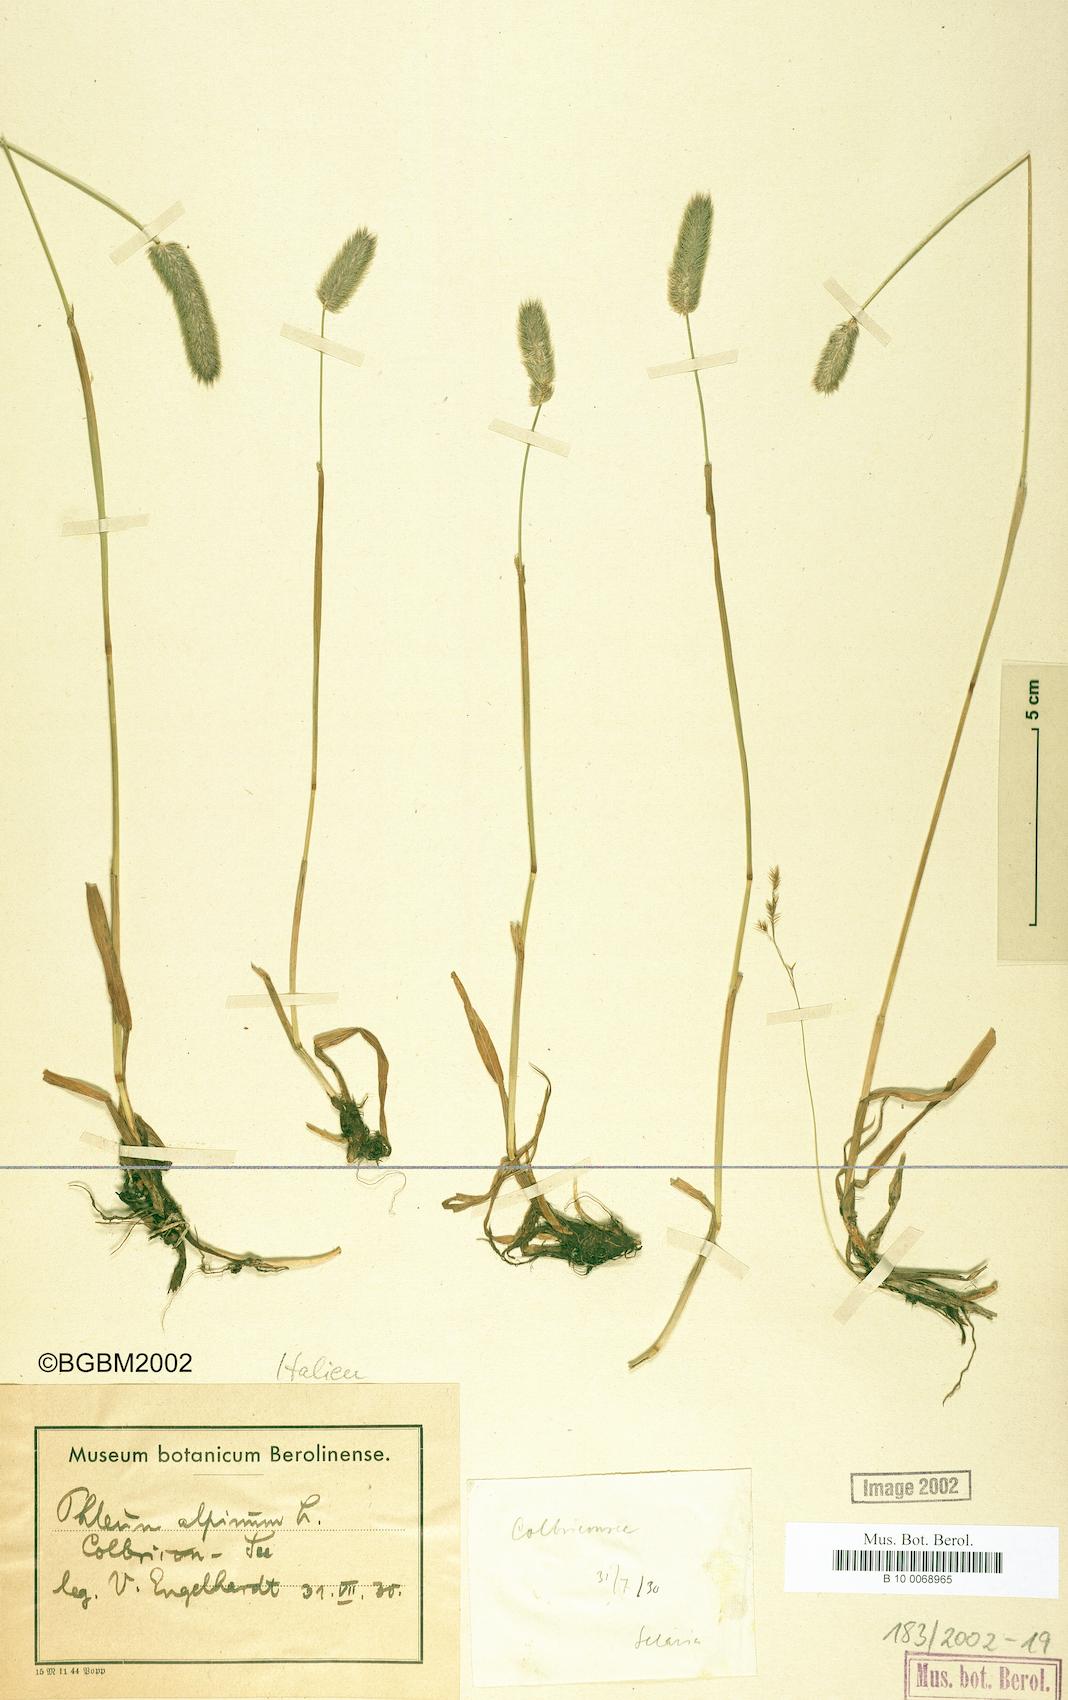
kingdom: Plantae
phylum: Tracheophyta
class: Liliopsida
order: Poales
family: Poaceae
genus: Phleum
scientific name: Phleum alpinum
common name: Alpine cat's-tail
